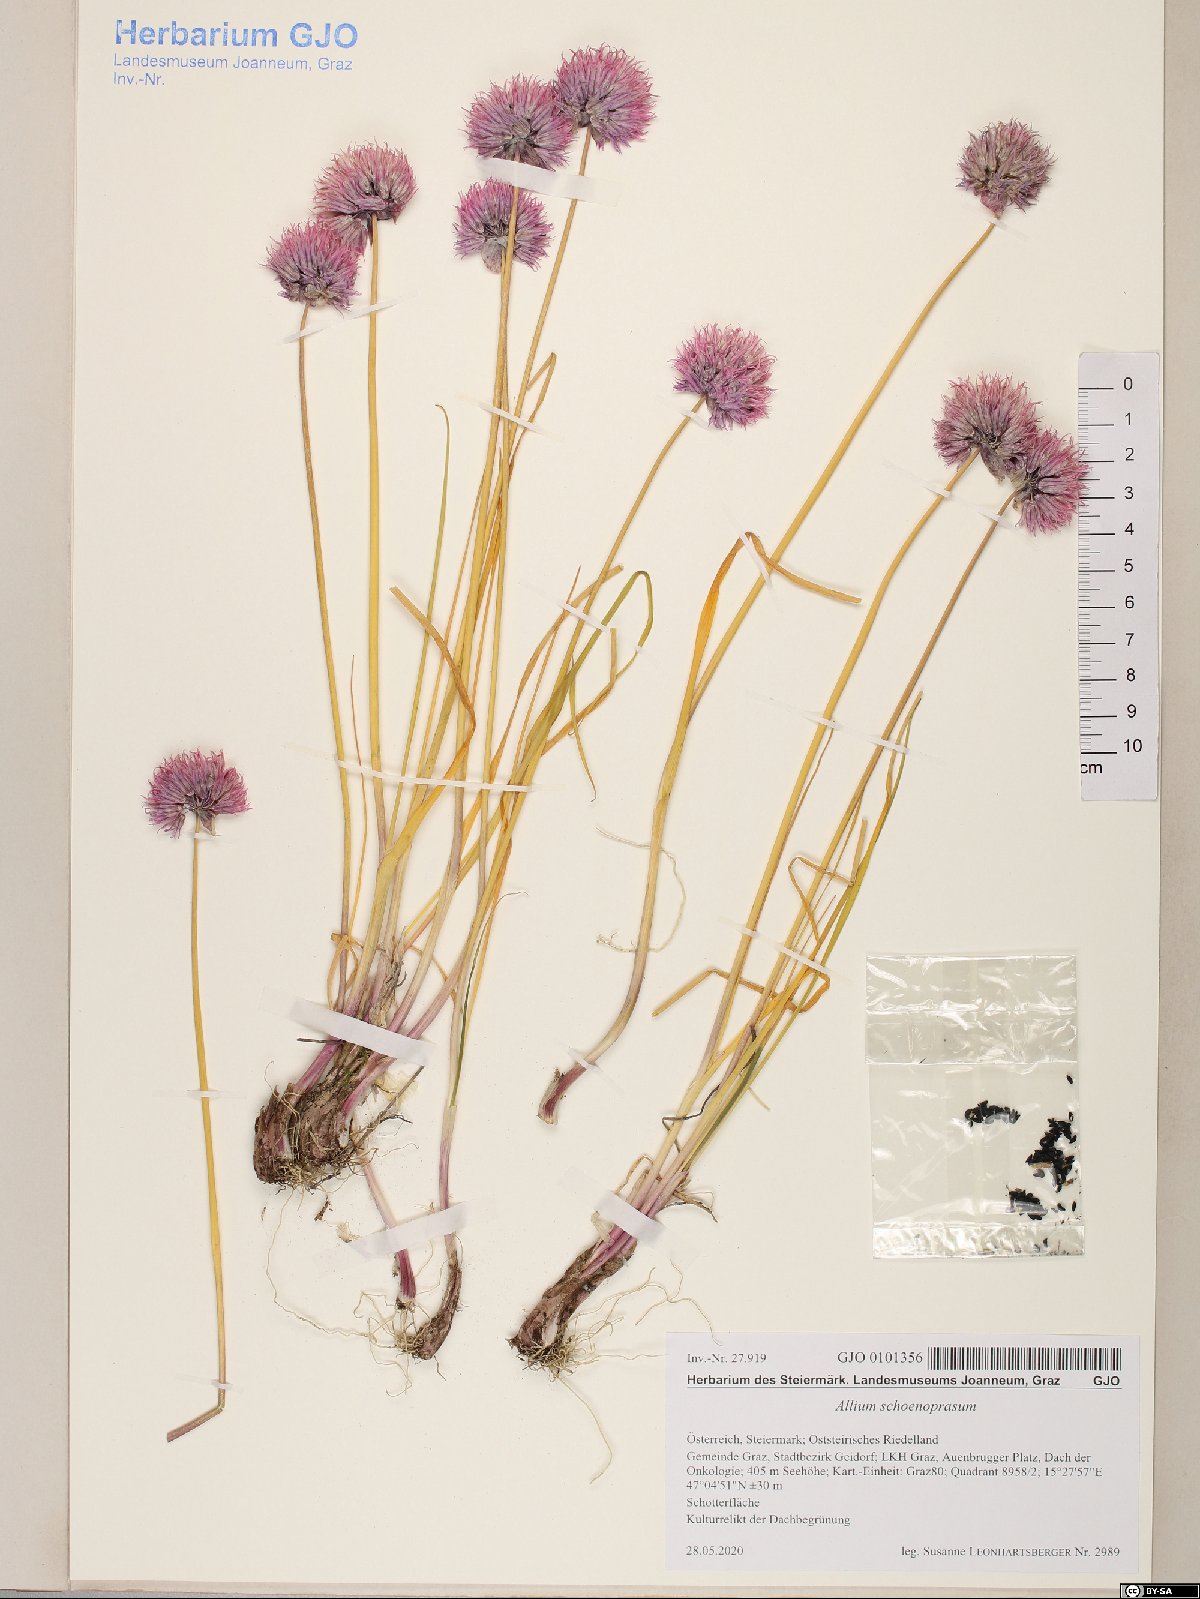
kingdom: Plantae
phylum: Tracheophyta
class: Liliopsida
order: Asparagales
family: Amaryllidaceae
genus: Allium
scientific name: Allium schoenoprasum
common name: Chives
